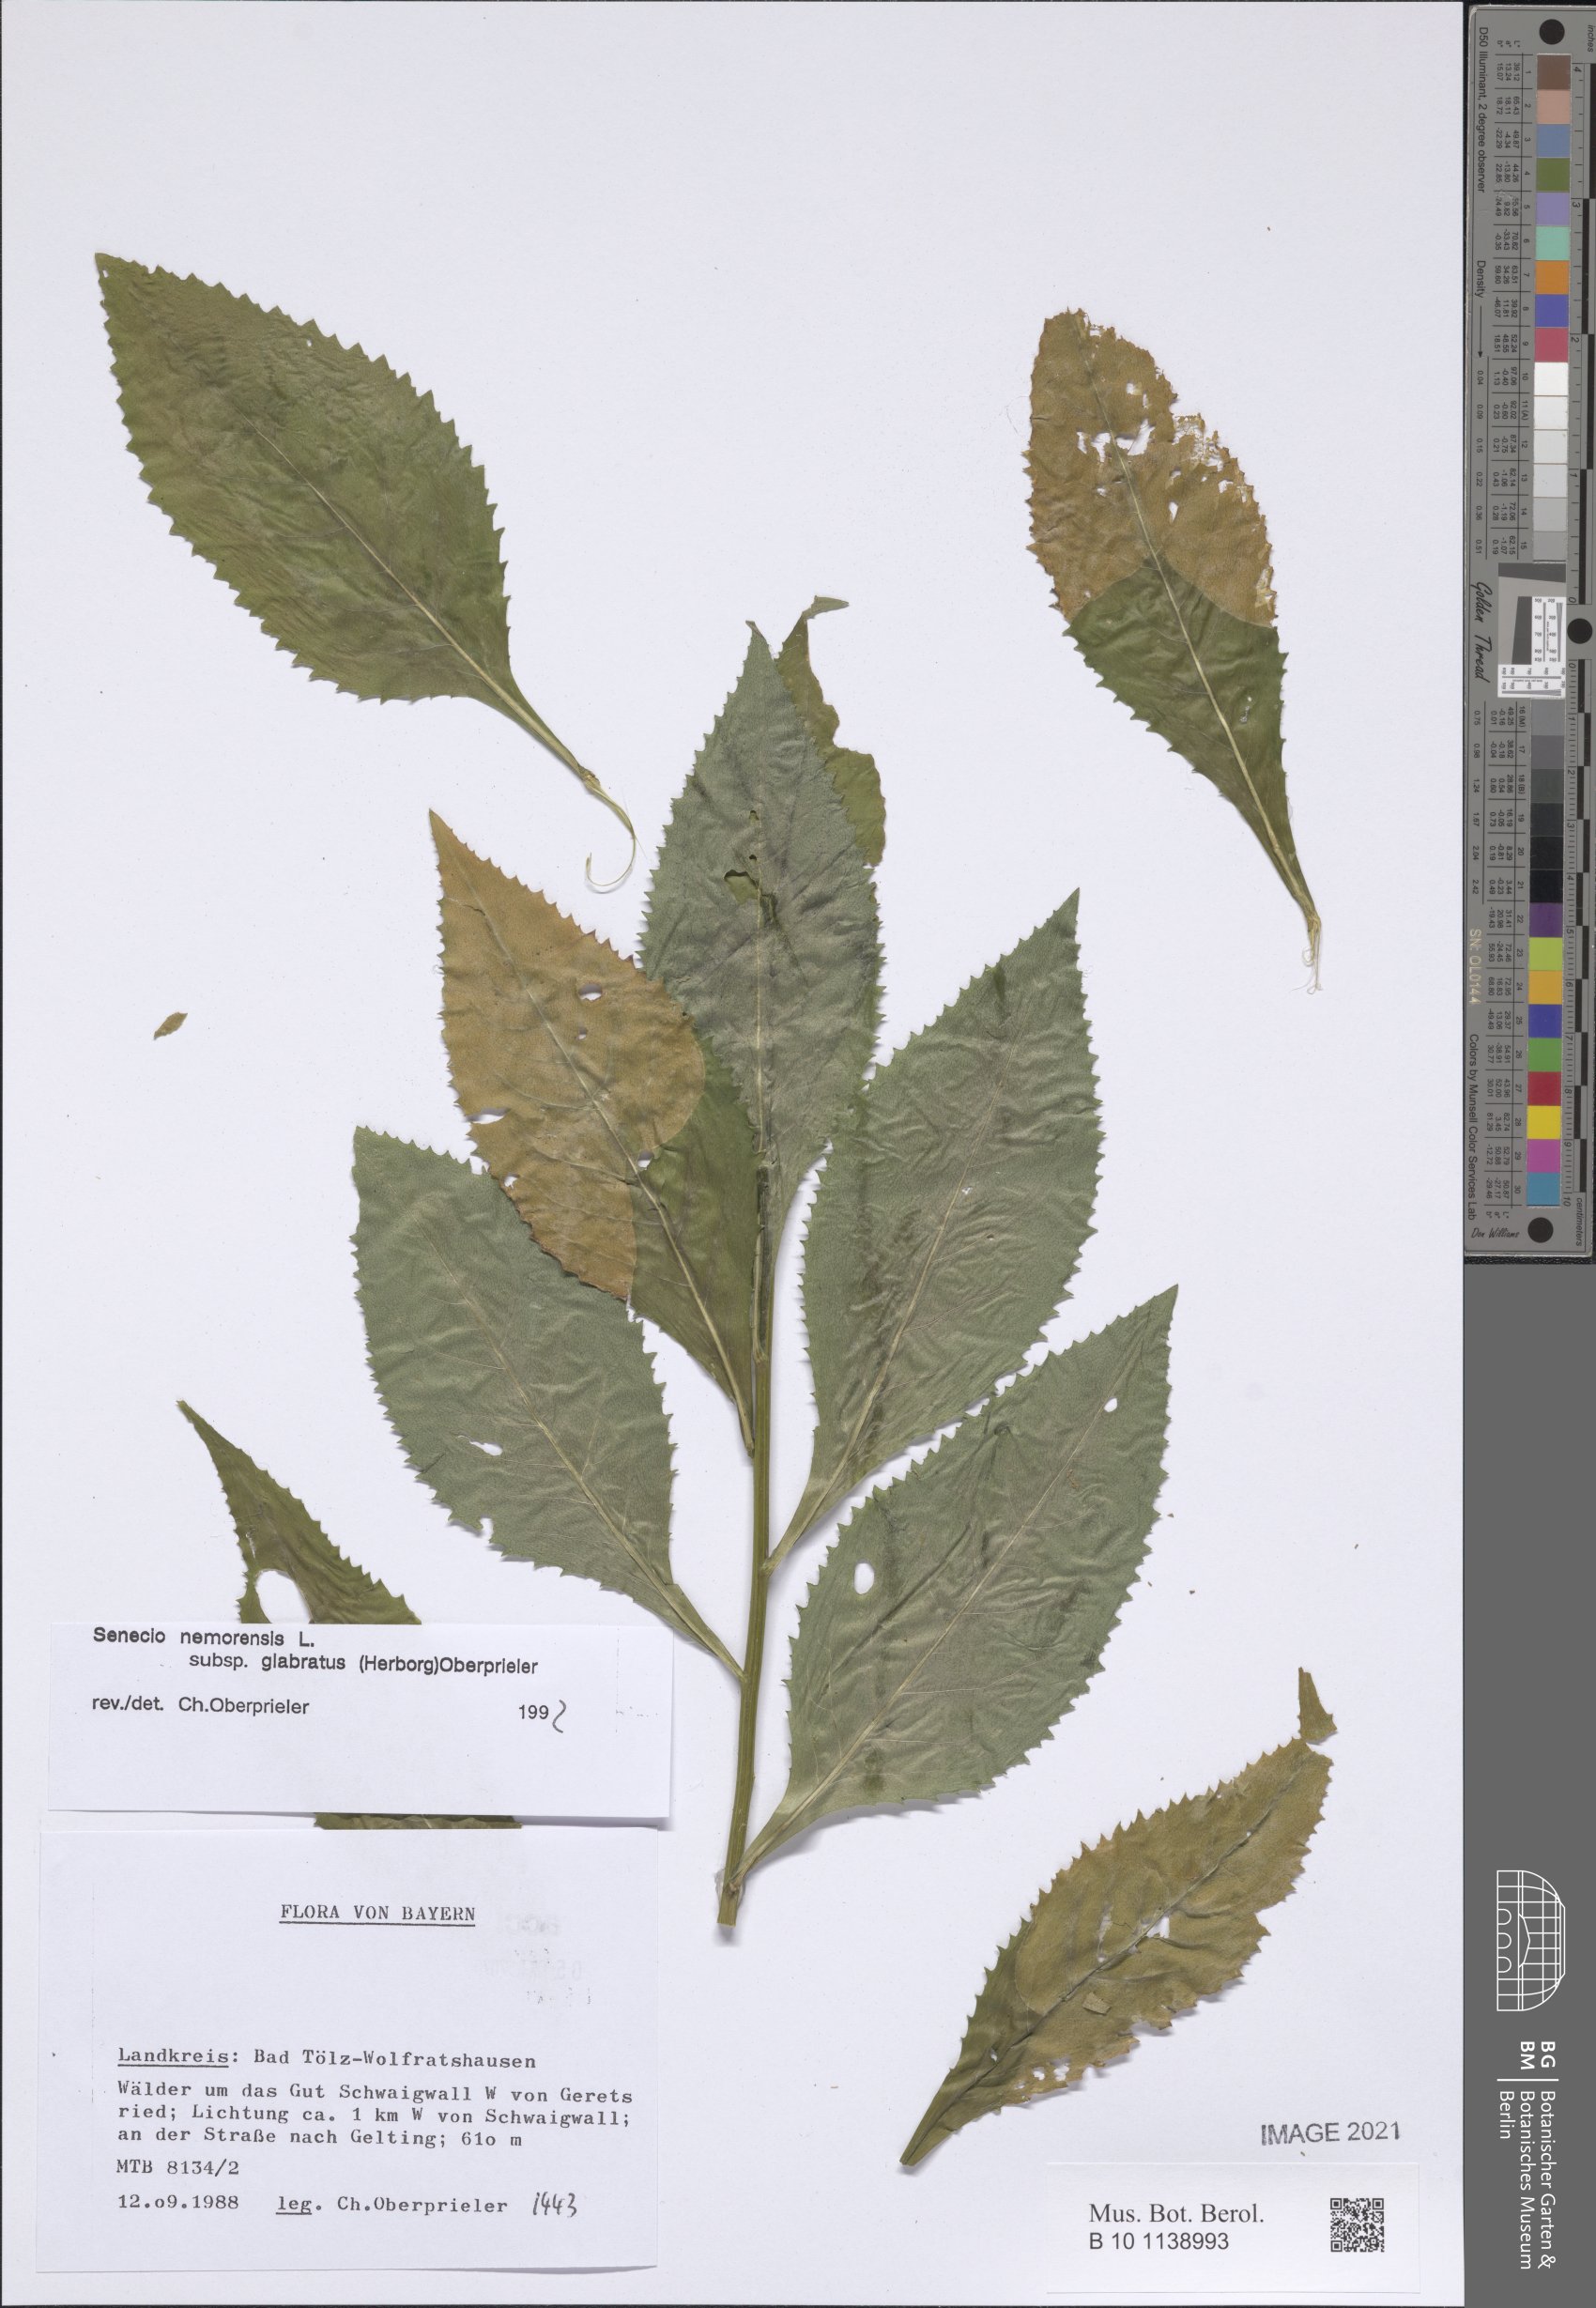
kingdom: Plantae
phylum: Tracheophyta
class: Magnoliopsida
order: Asterales
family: Asteraceae
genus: Senecio
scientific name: Senecio germanicus
